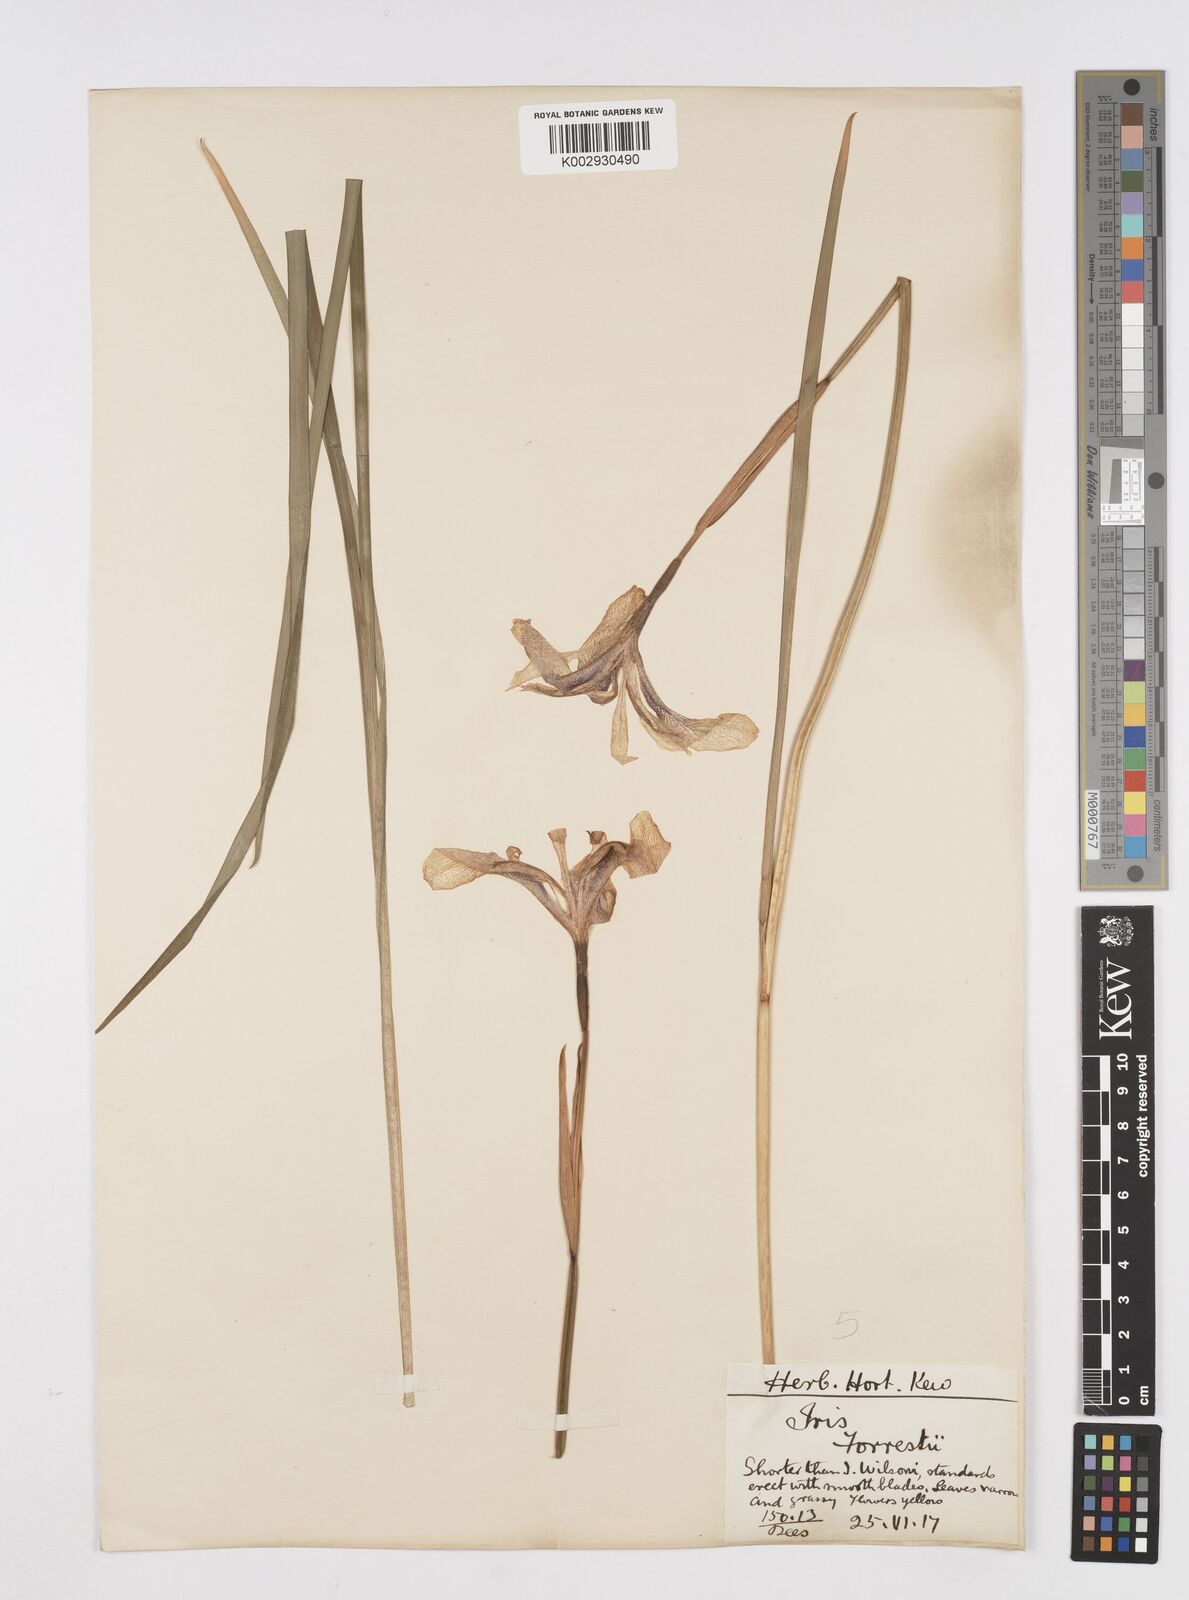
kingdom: Plantae
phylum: Tracheophyta
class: Liliopsida
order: Asparagales
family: Iridaceae
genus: Iris
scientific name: Iris forrestii
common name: Yunnan iris
